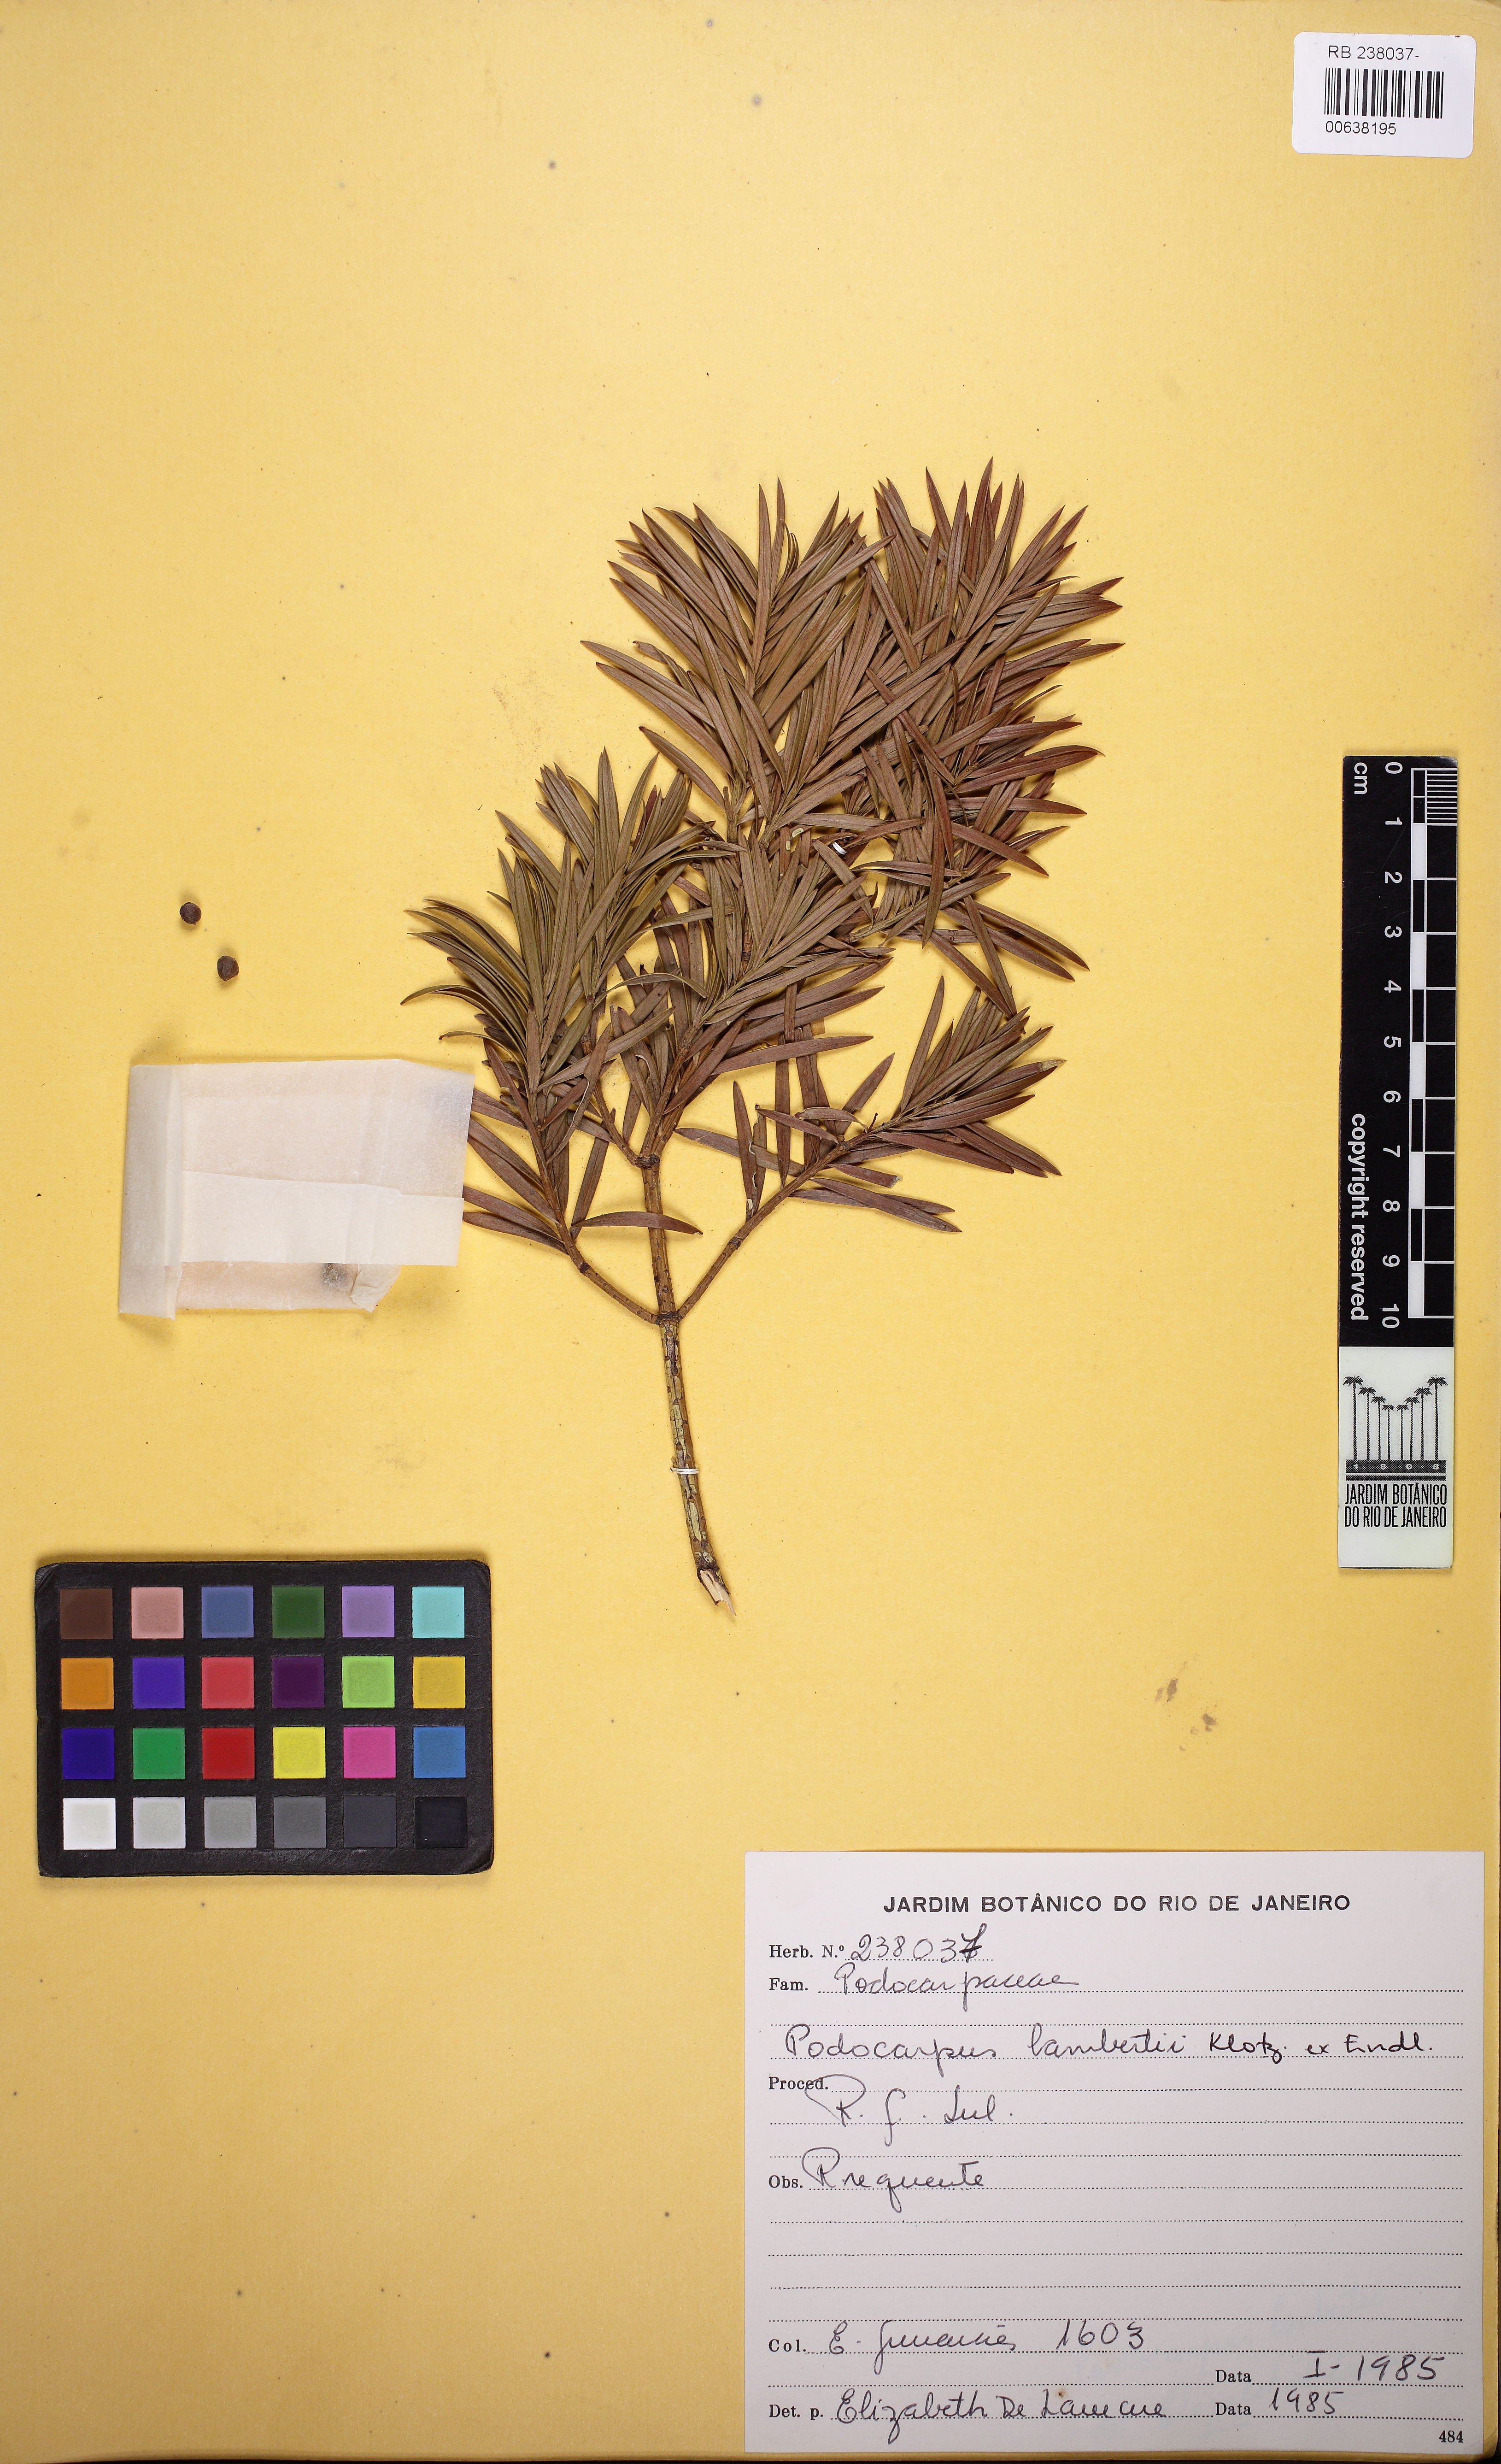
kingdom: Plantae
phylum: Tracheophyta
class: Pinopsida
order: Pinales
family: Podocarpaceae
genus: Podocarpus
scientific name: Podocarpus lambertii
